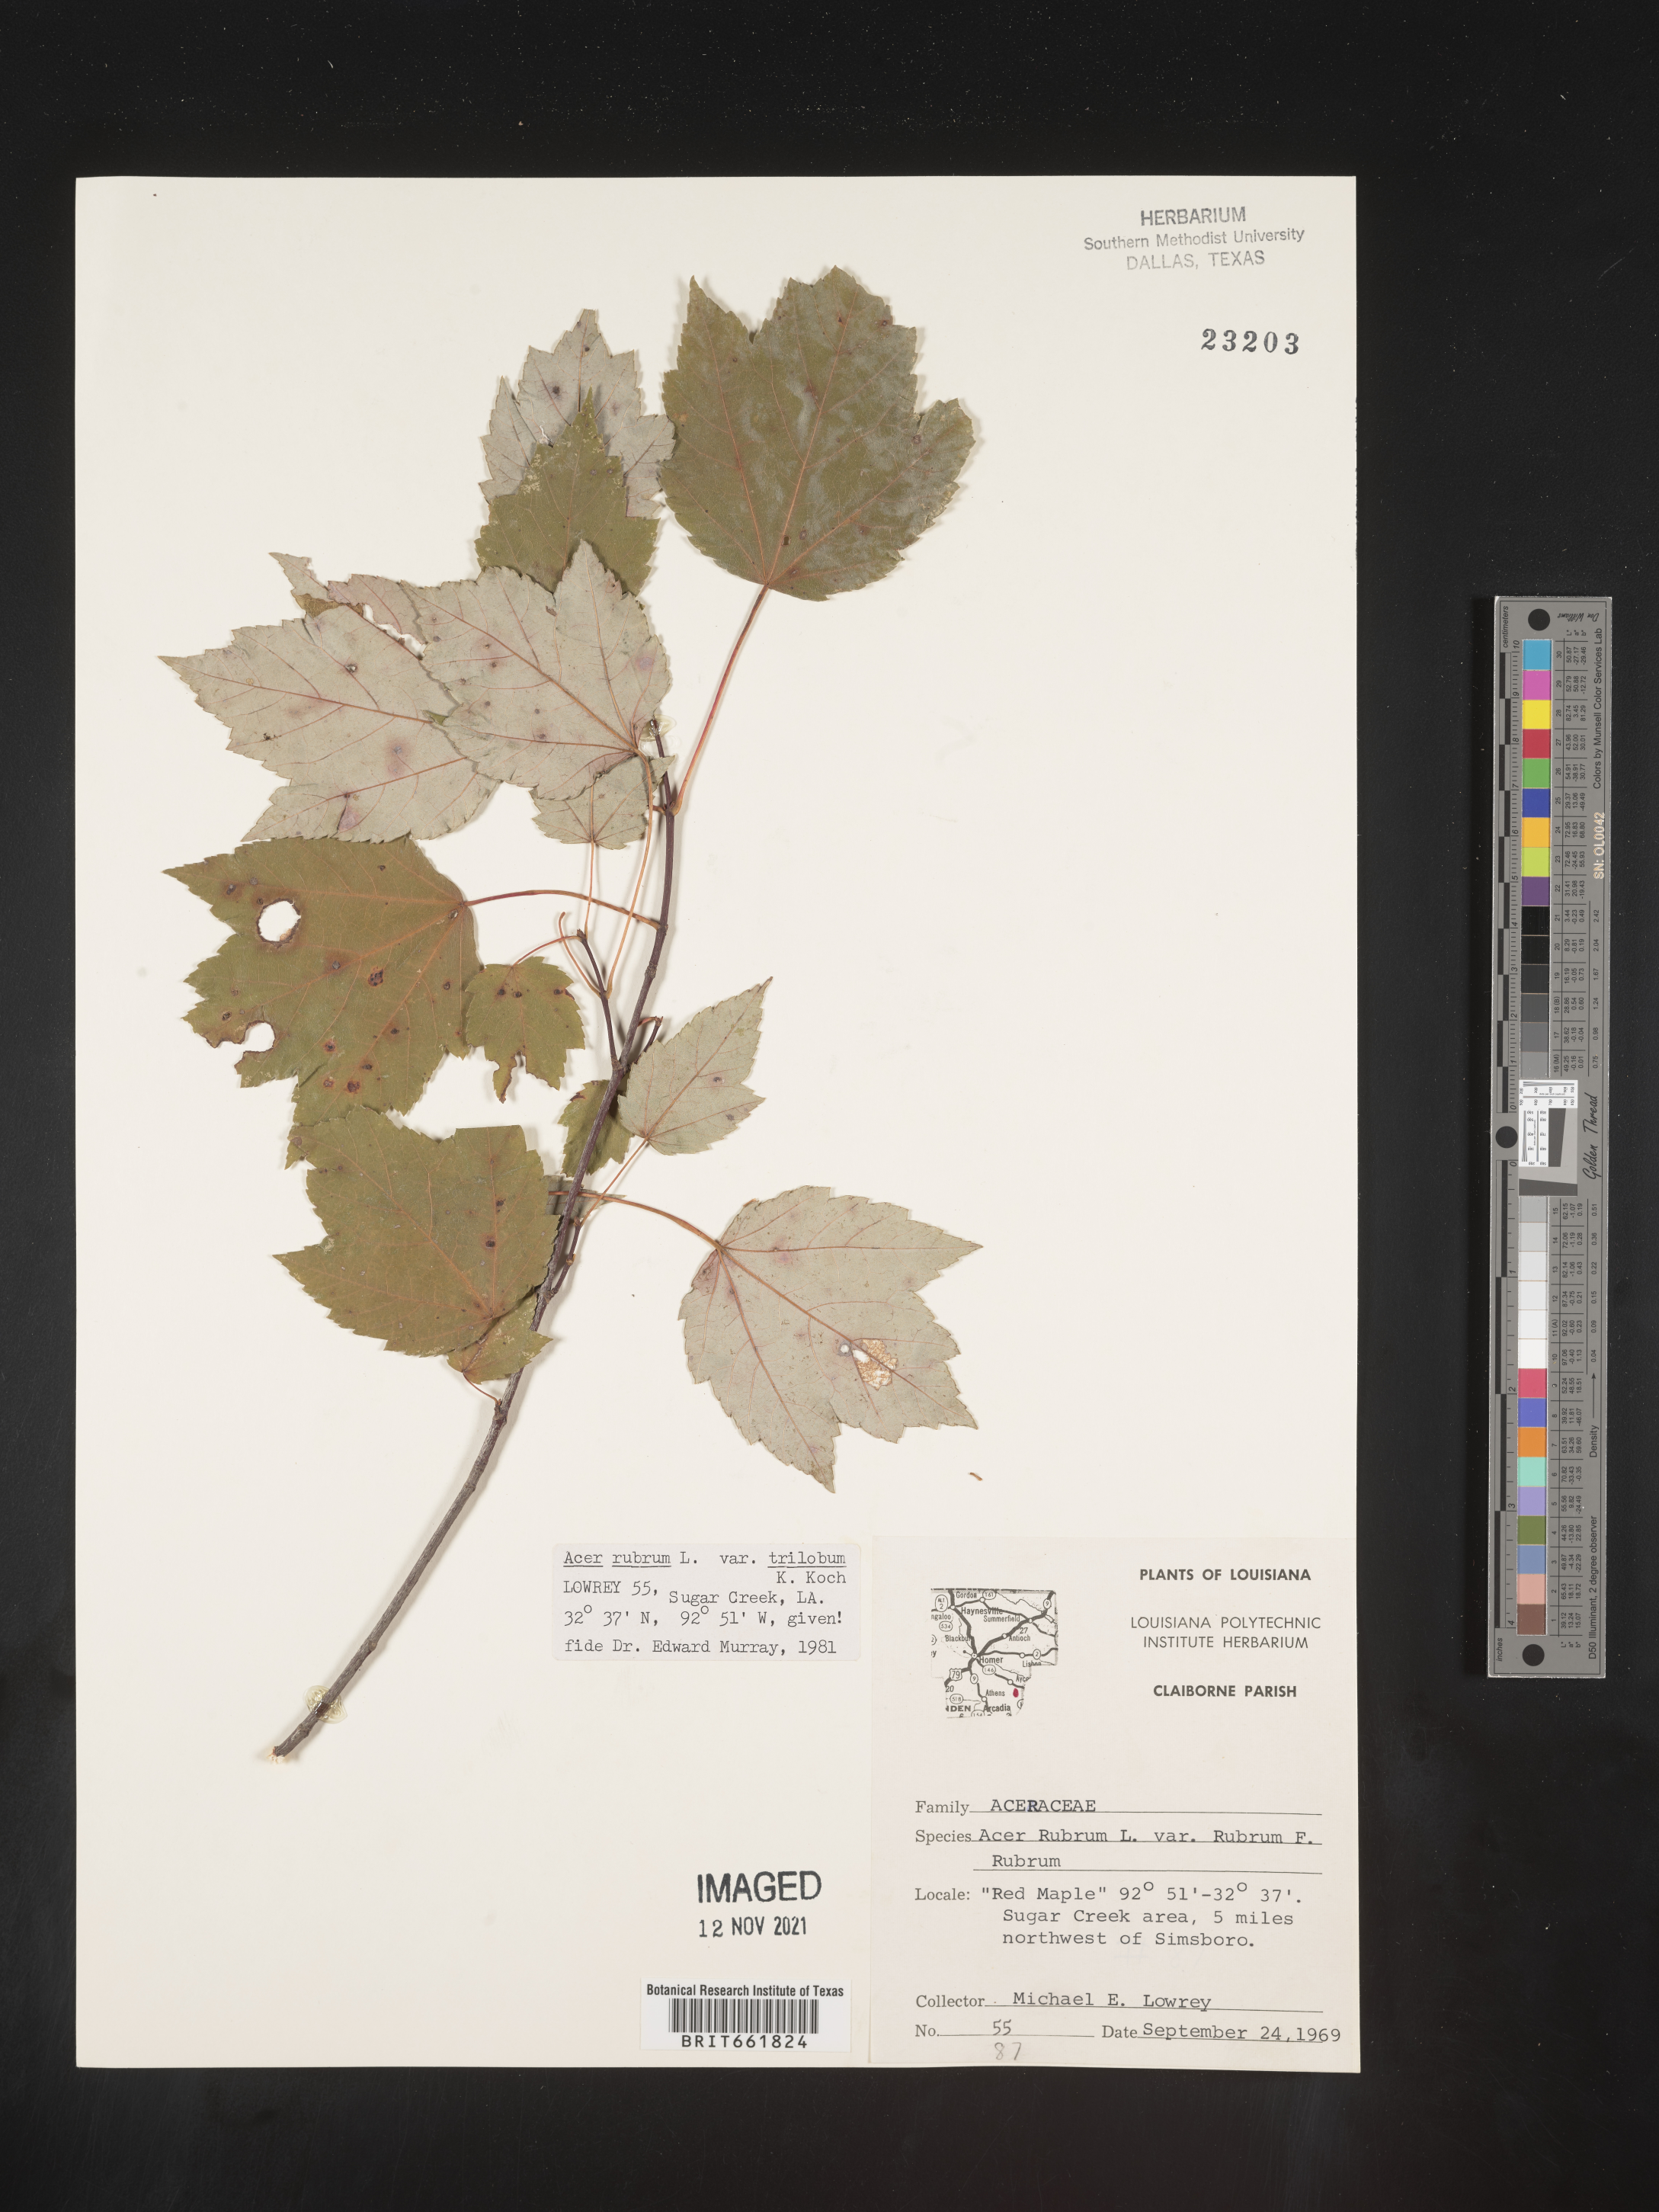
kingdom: Plantae
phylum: Tracheophyta
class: Magnoliopsida
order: Sapindales
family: Sapindaceae
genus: Acer
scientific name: Acer rubrum
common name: Red maple
